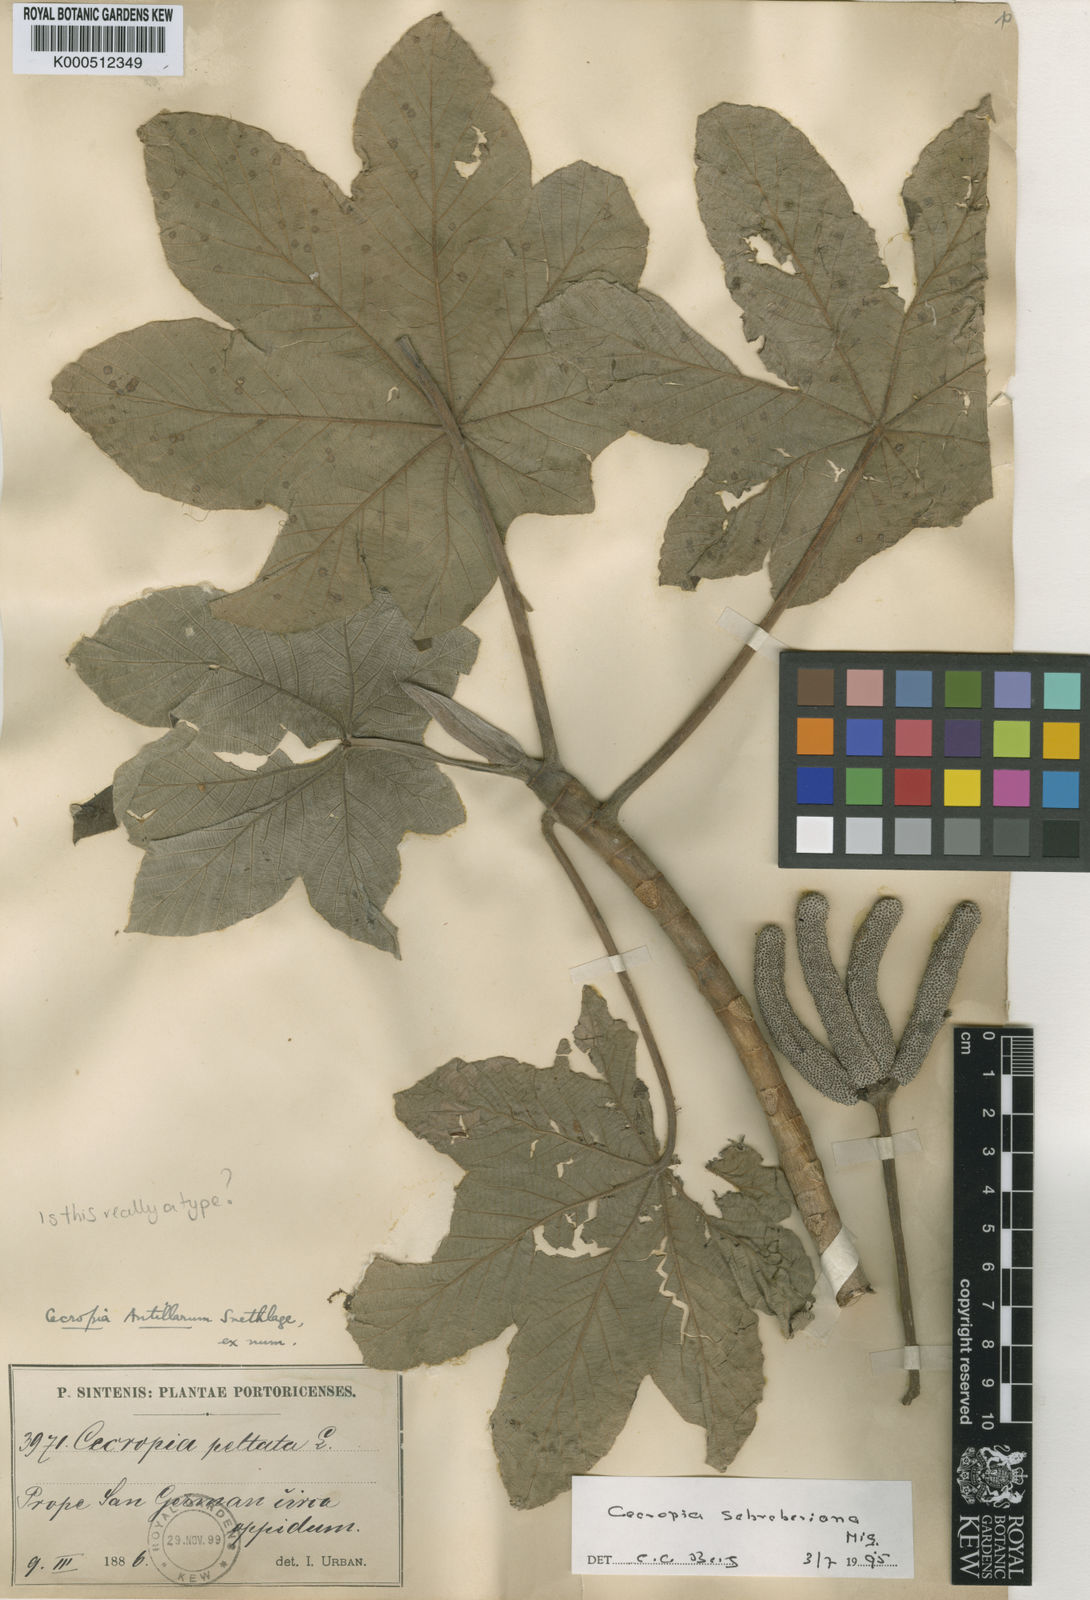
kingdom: Plantae
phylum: Tracheophyta
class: Magnoliopsida
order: Rosales
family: Urticaceae
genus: Cecropia
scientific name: Cecropia schreberiana
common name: Trumpet tree
